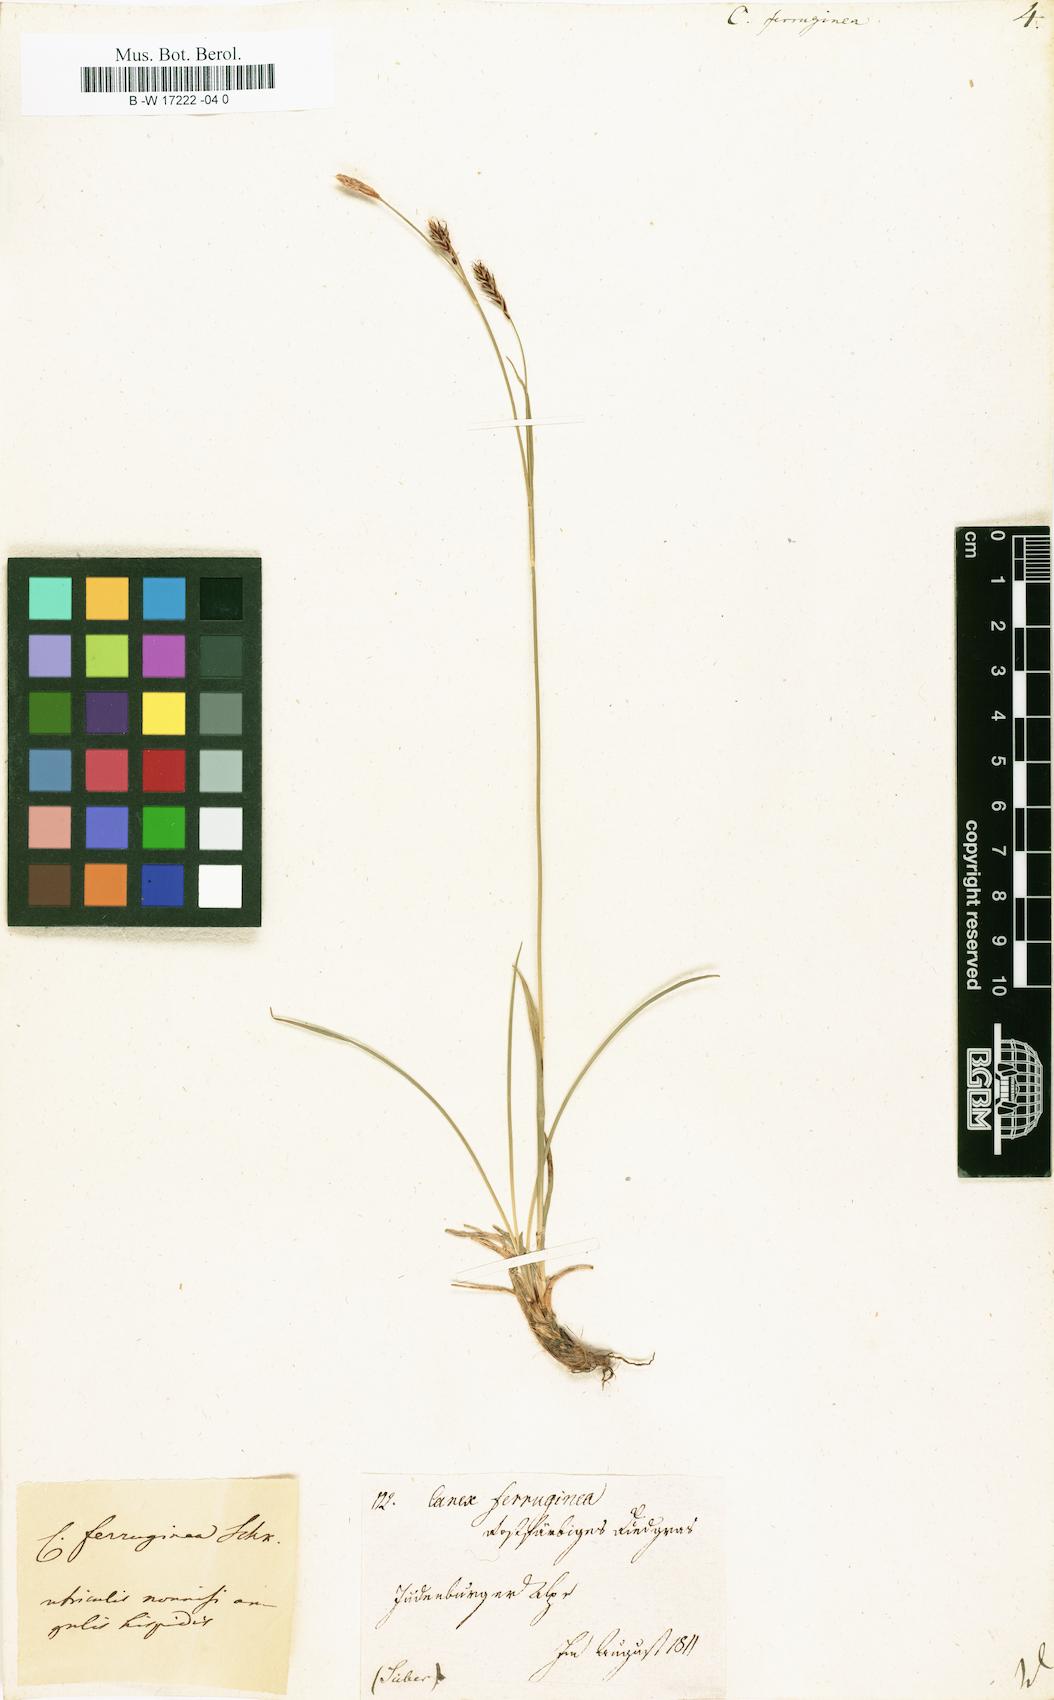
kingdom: Plantae
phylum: Tracheophyta
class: Liliopsida
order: Poales
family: Cyperaceae
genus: Carex
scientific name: Carex ferruginea
